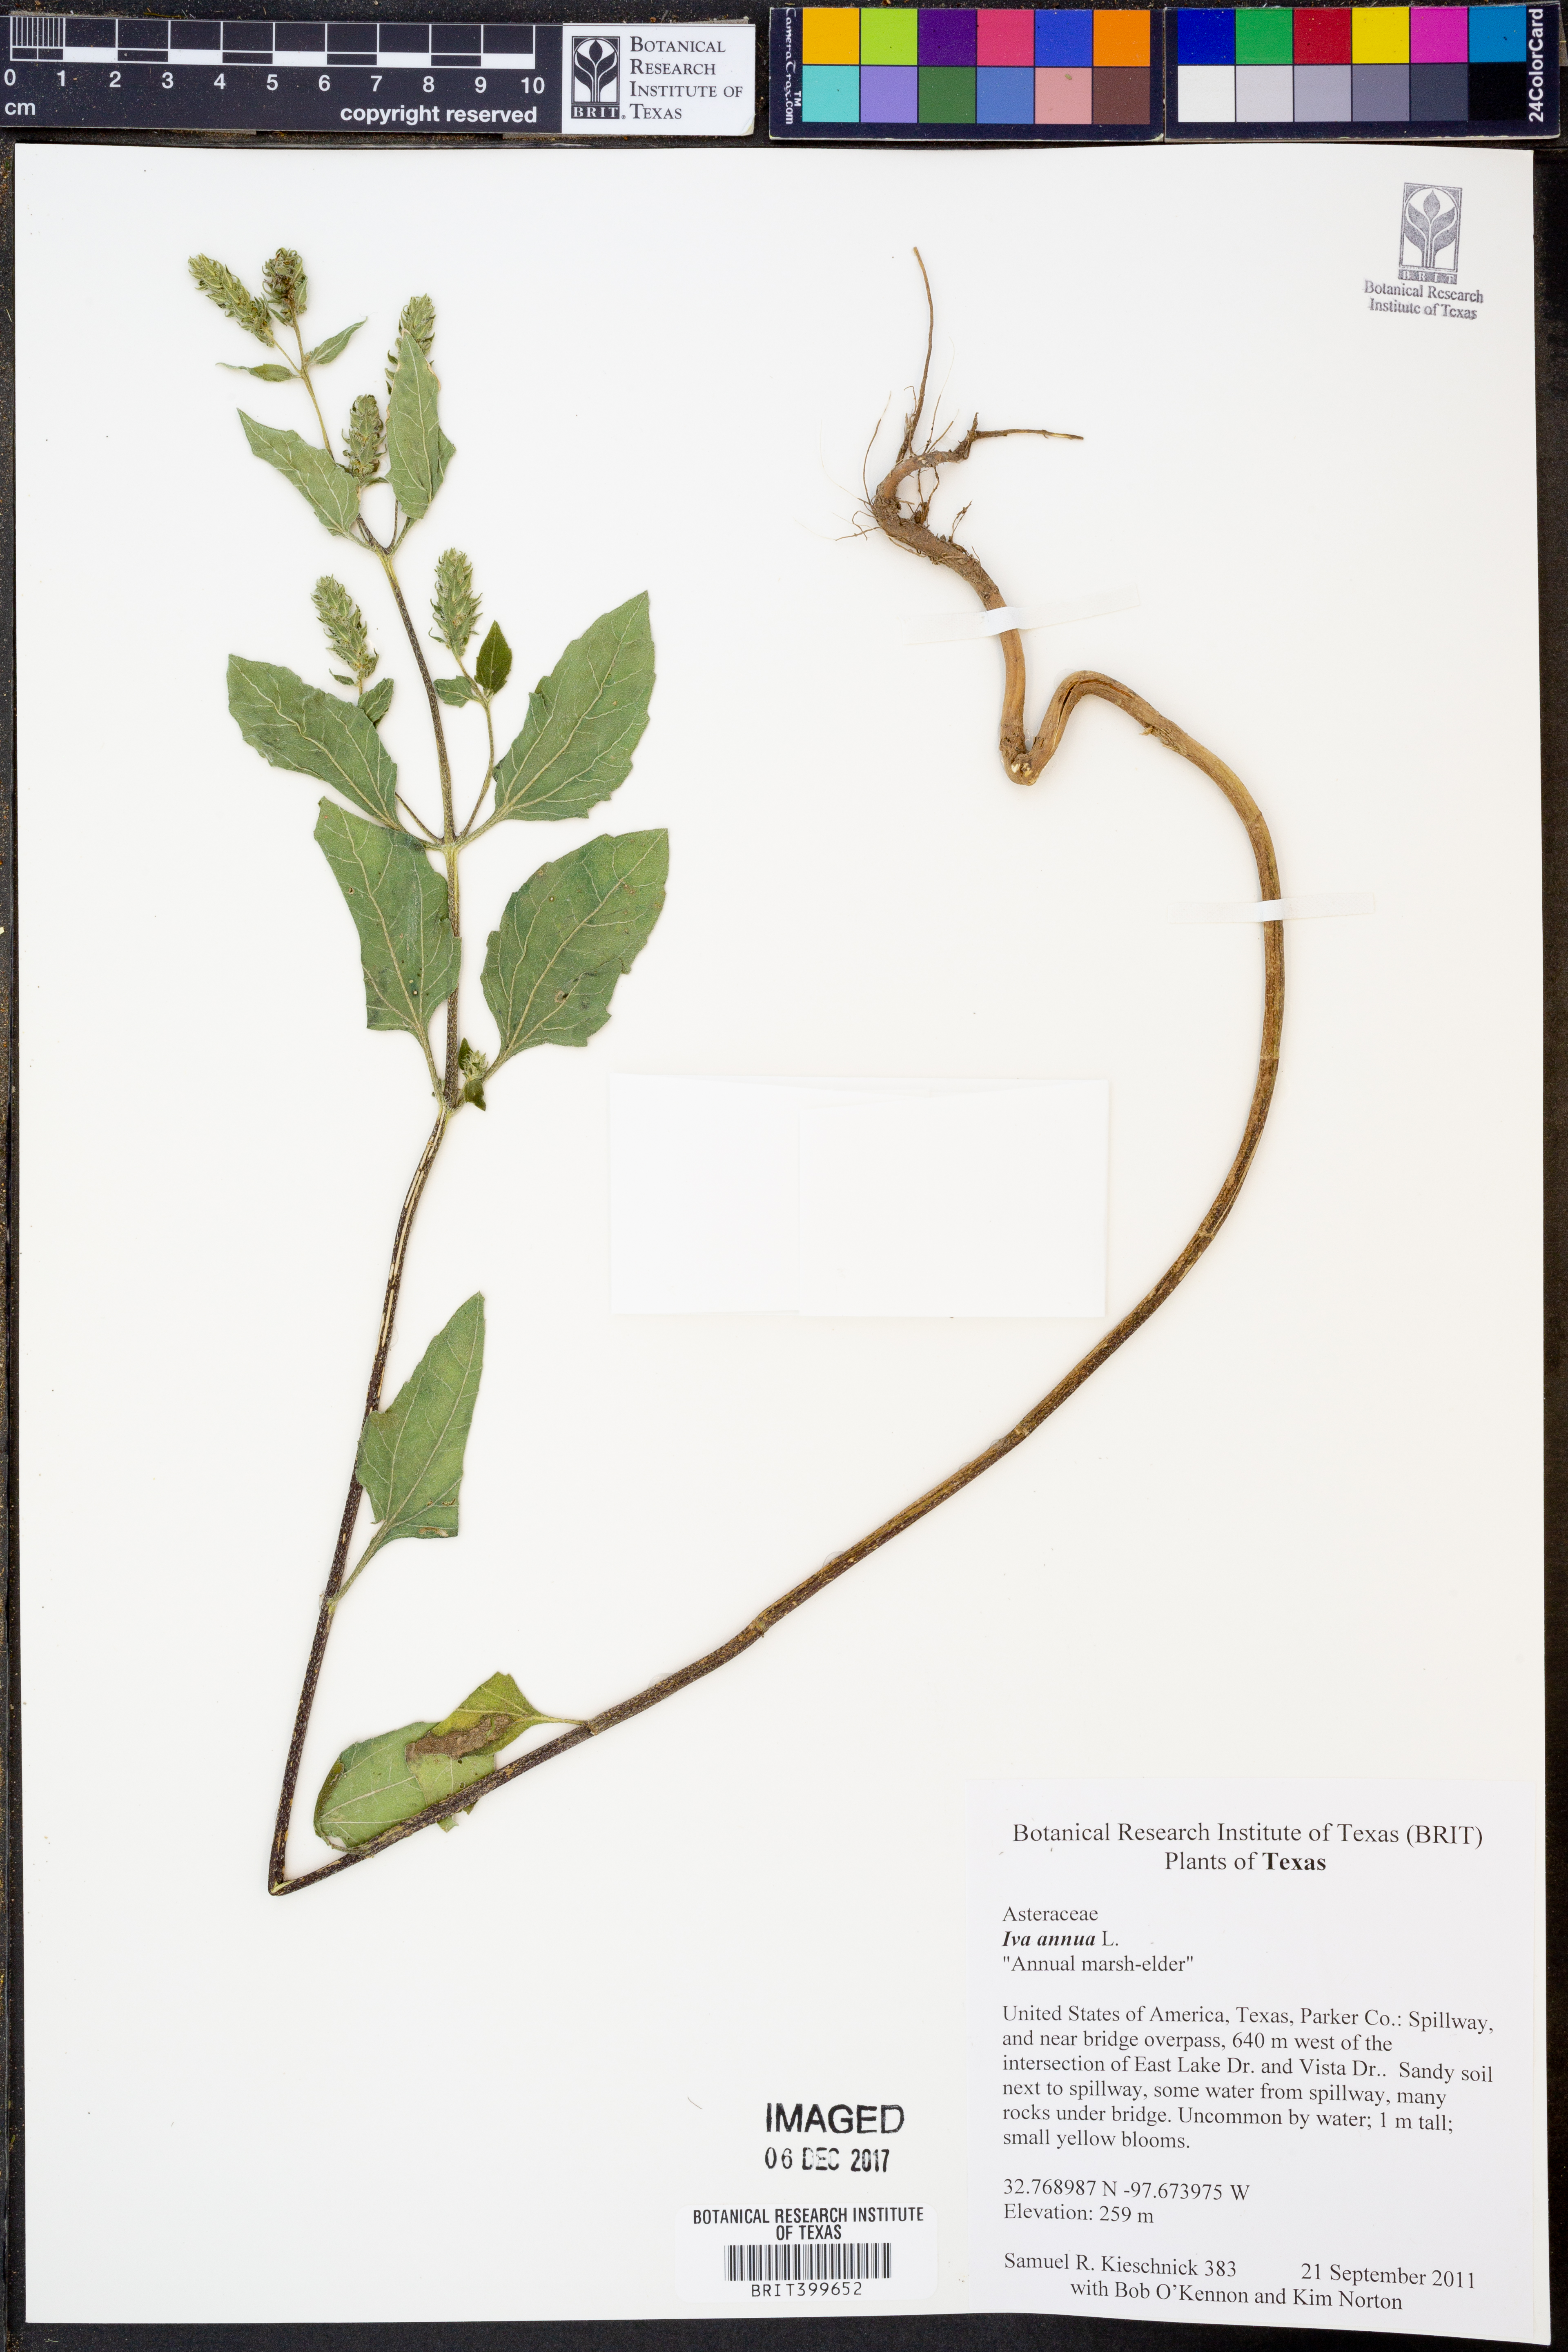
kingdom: Plantae
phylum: Tracheophyta
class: Magnoliopsida
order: Asterales
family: Asteraceae
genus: Iva
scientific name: Iva annua
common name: Marsh-elder
